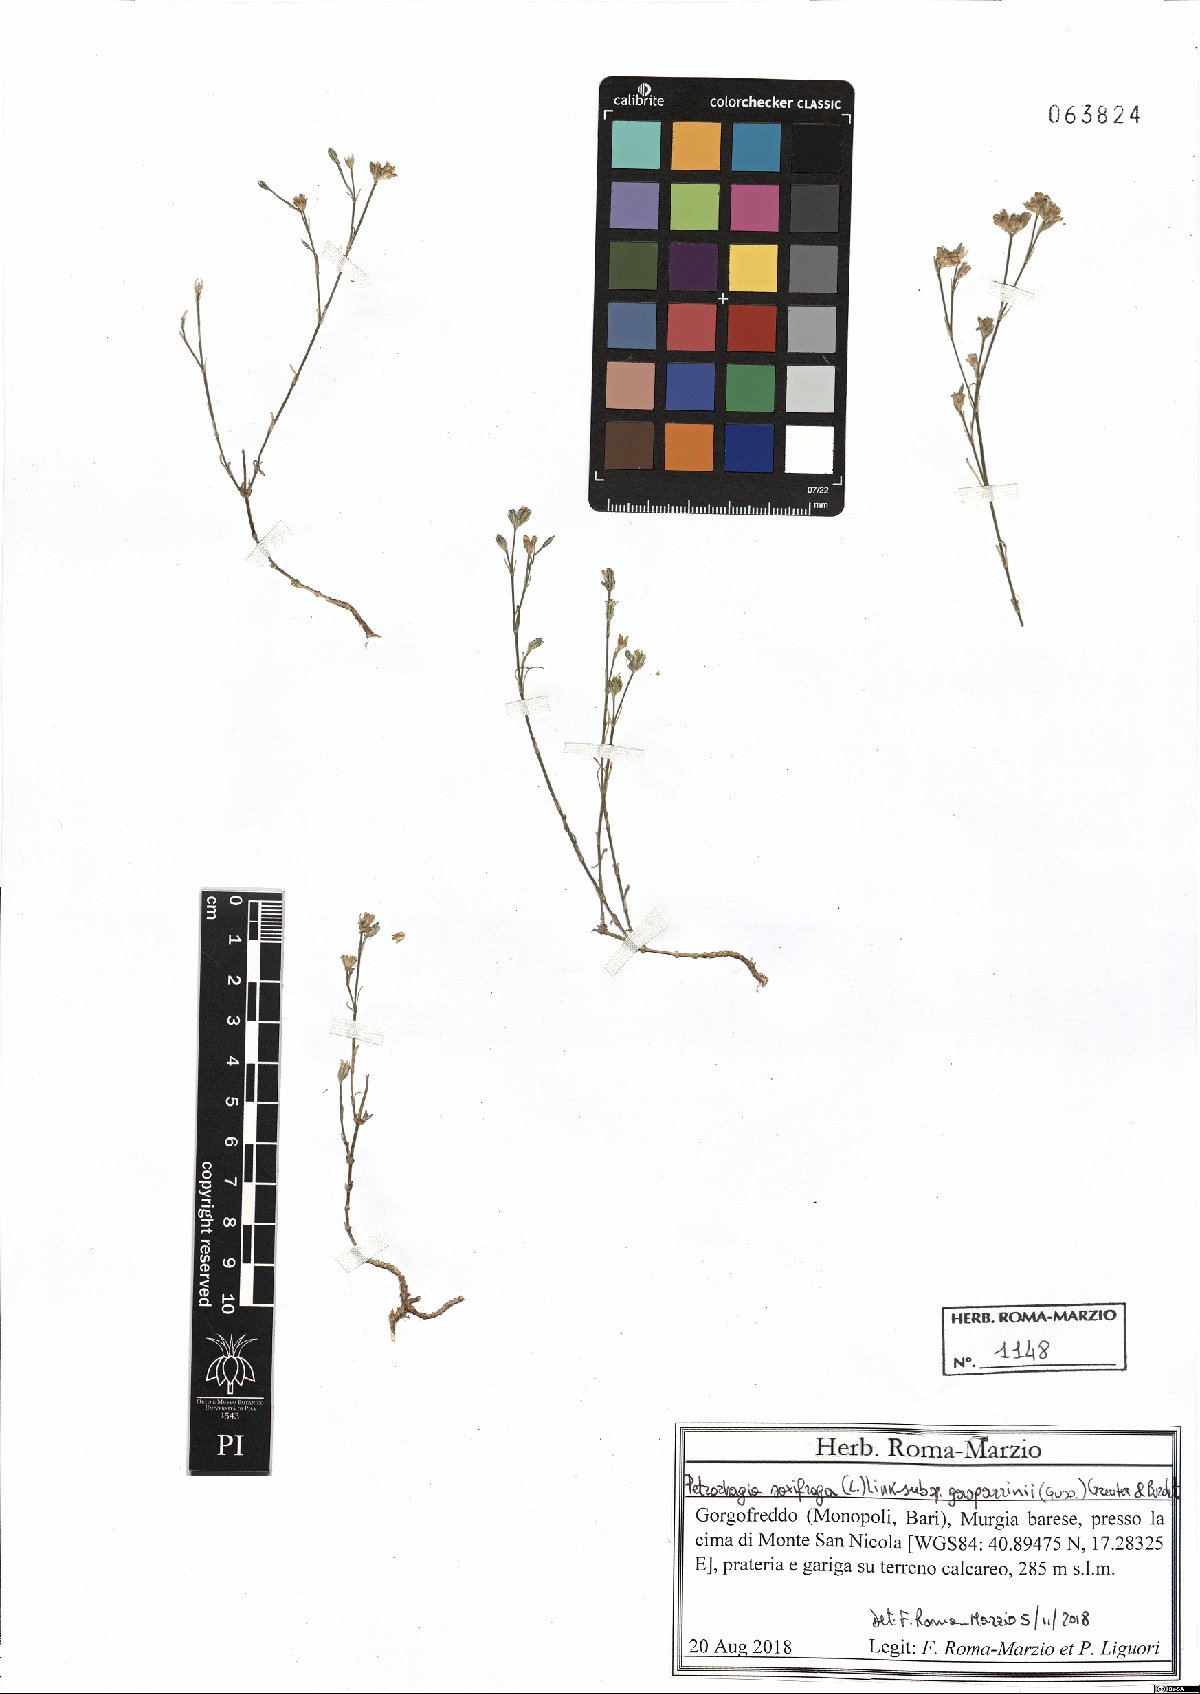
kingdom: Plantae
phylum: Tracheophyta
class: Magnoliopsida
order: Caryophyllales
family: Caryophyllaceae
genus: Petrorhagia
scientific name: Petrorhagia saxifraga
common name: Tunicflower
